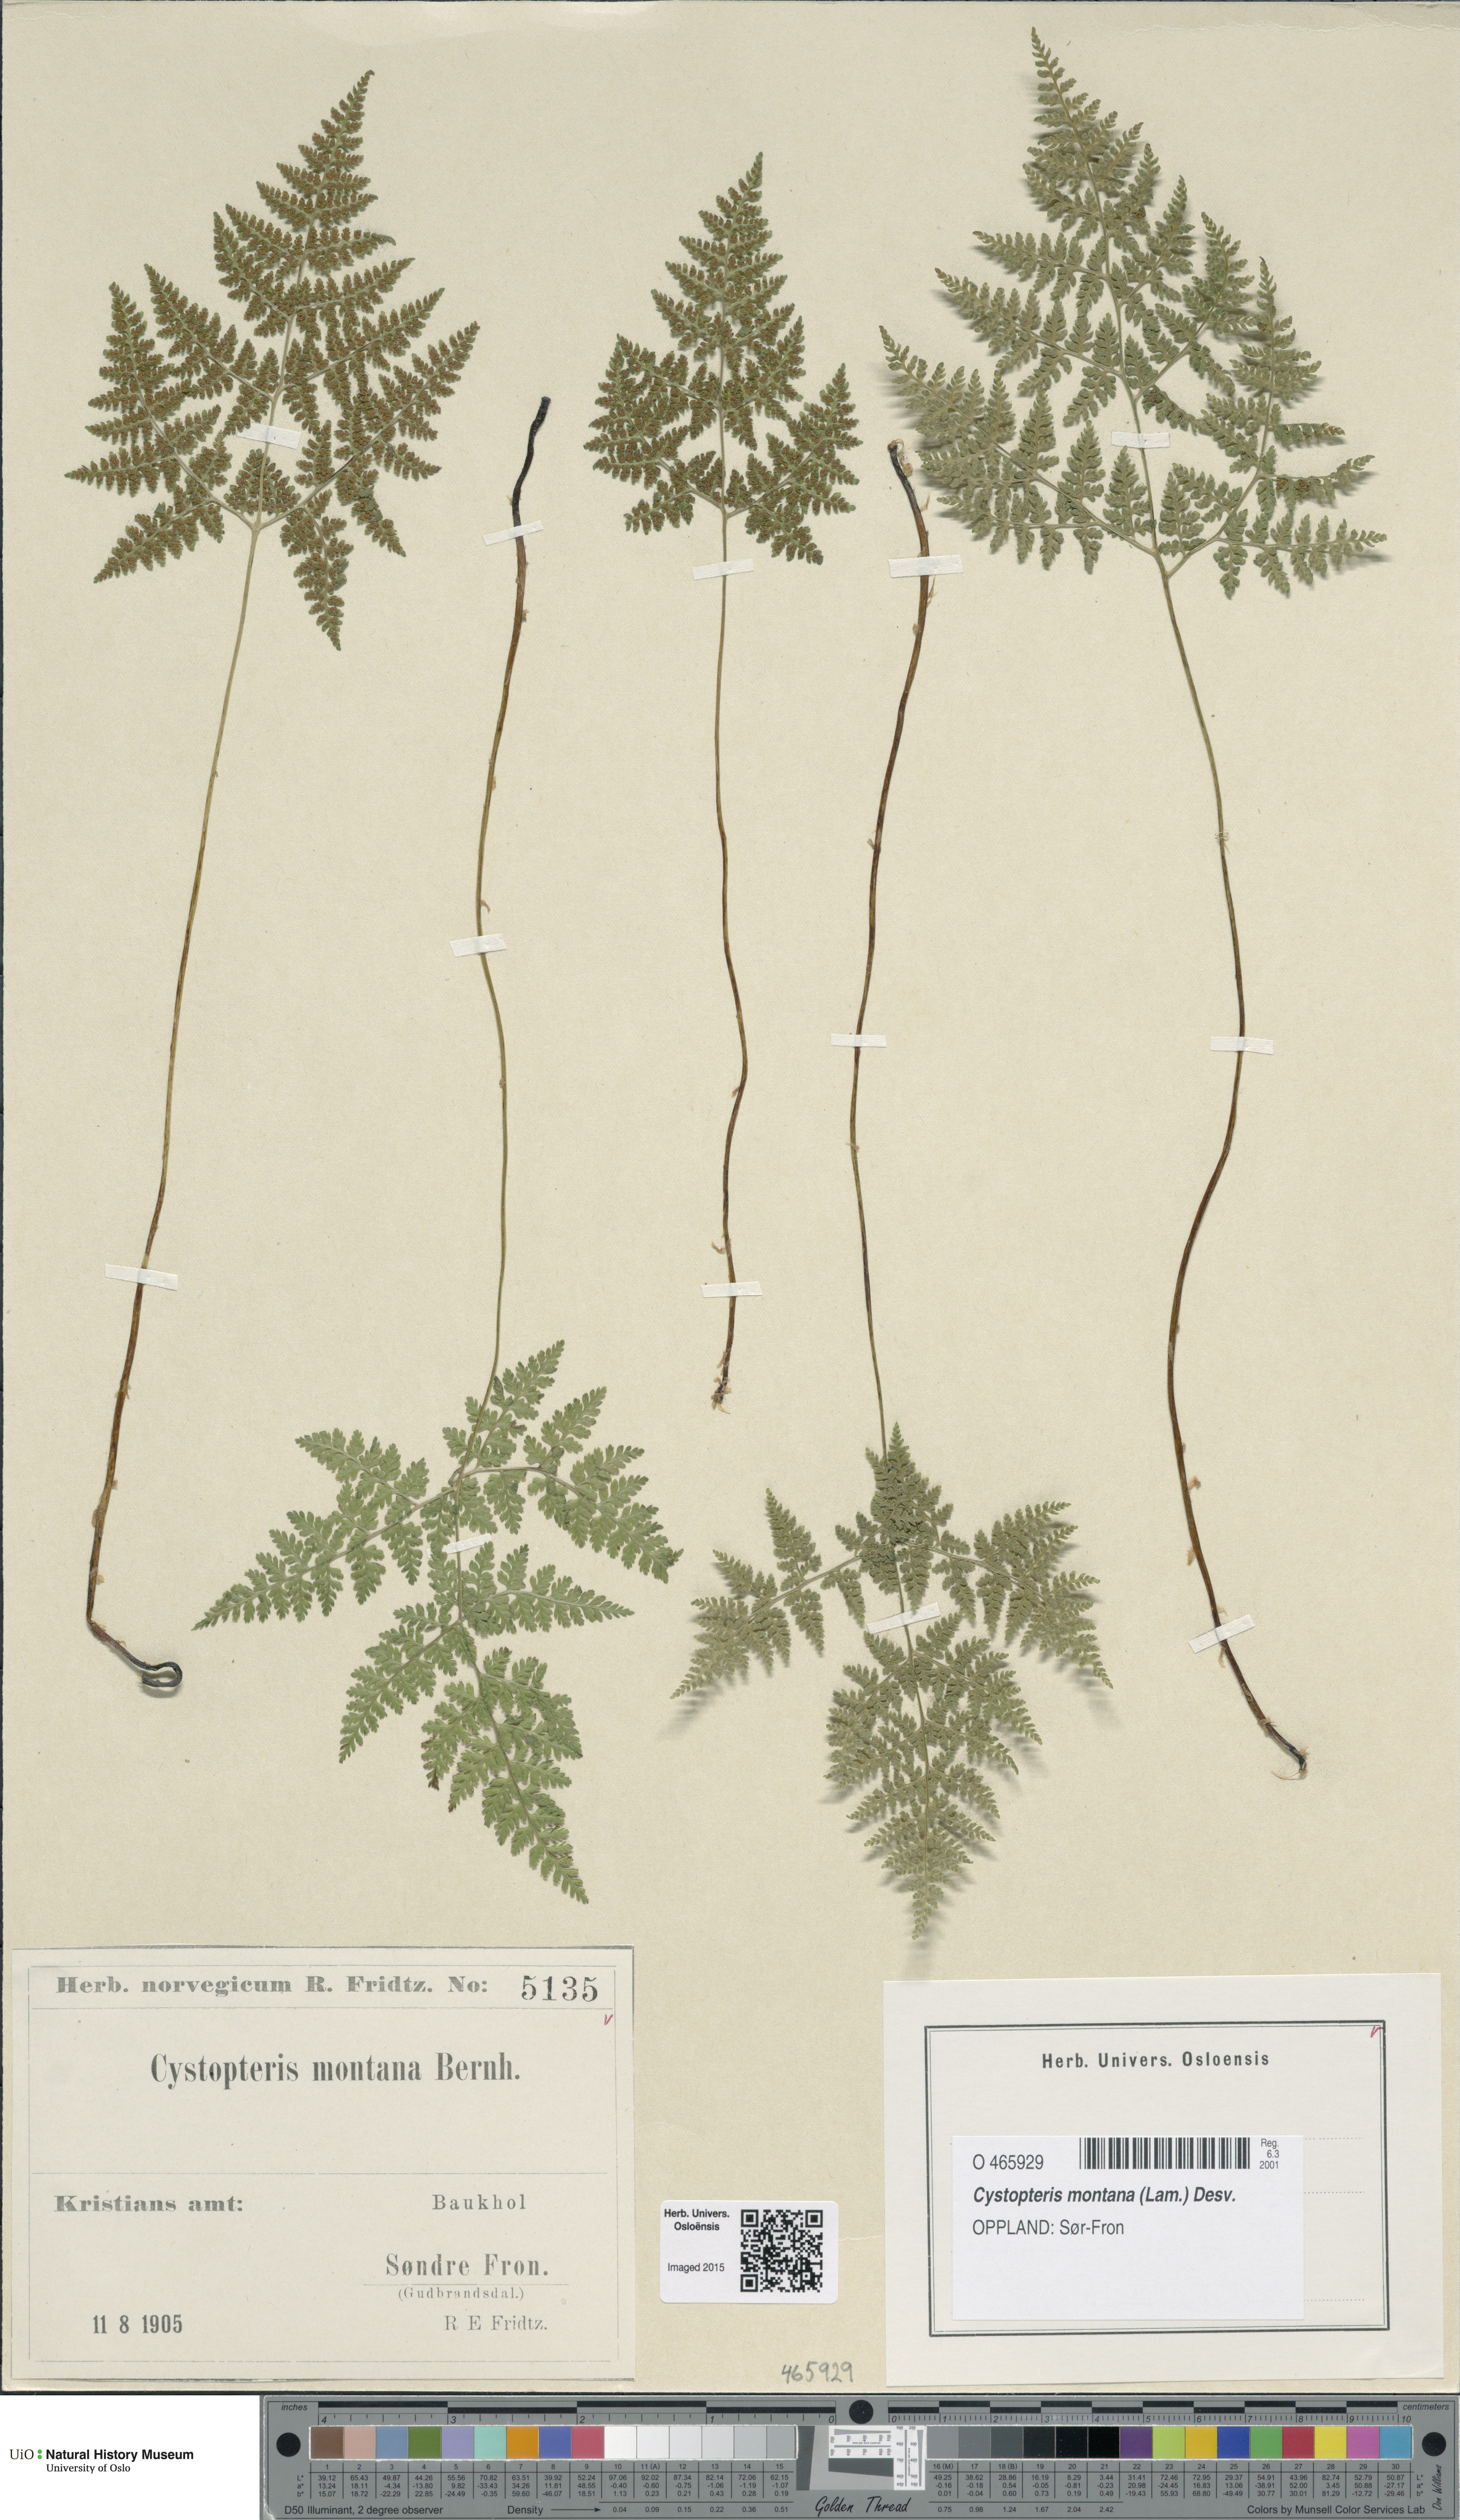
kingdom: Plantae
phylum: Tracheophyta
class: Polypodiopsida
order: Polypodiales
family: Cystopteridaceae
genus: Cystopteris
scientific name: Cystopteris montana
